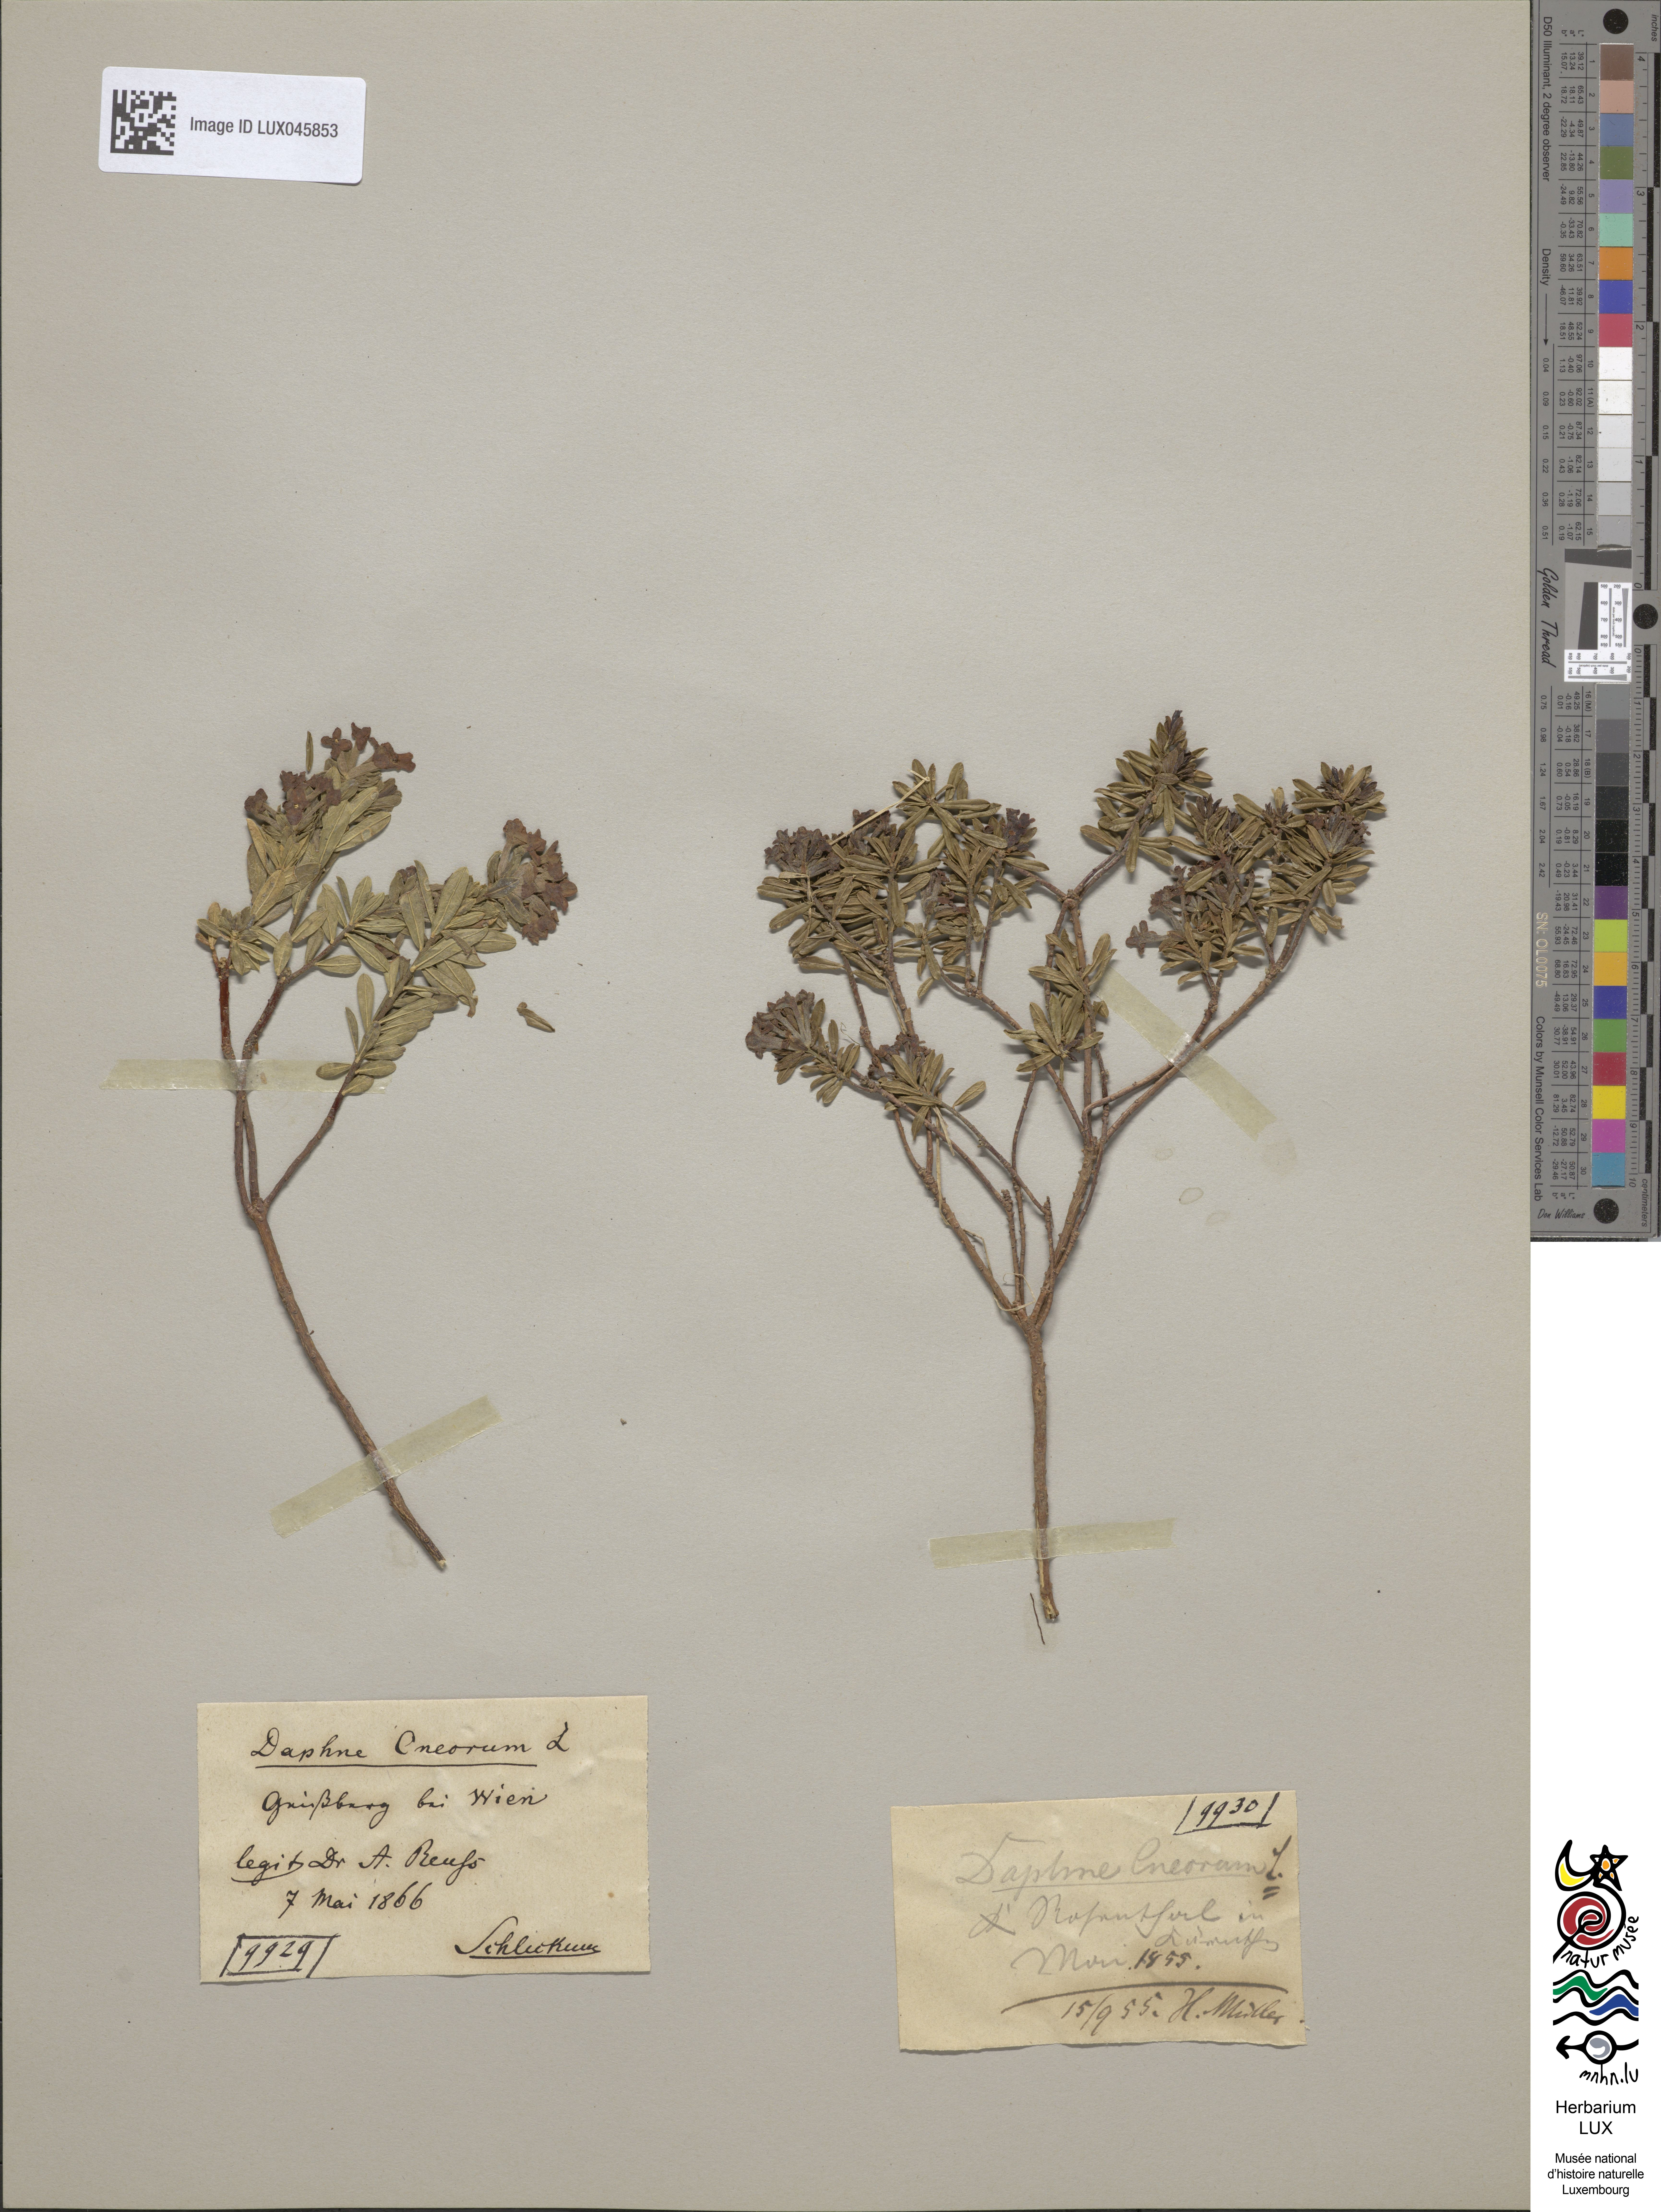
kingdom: Plantae
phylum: Tracheophyta
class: Magnoliopsida
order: Malvales
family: Thymelaeaceae
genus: Daphne
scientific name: Daphne cneorum
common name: Garland-flower
